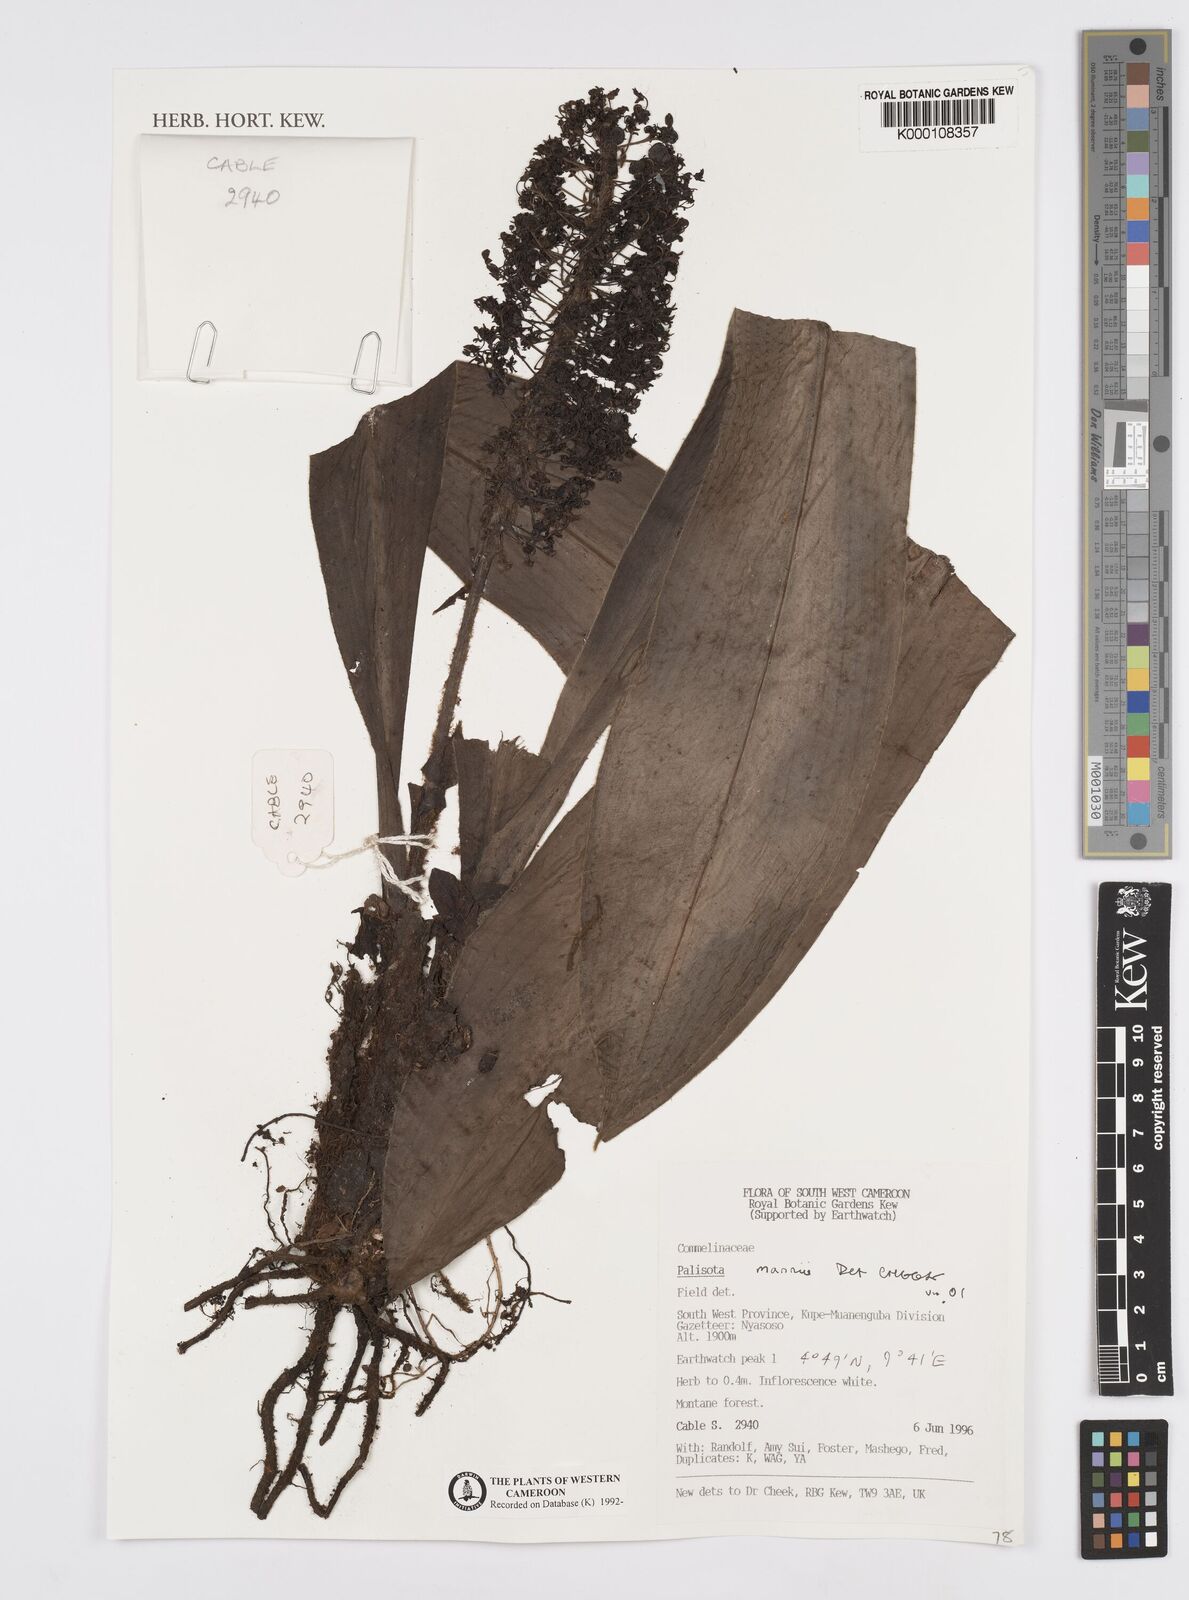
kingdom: Plantae
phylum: Tracheophyta
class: Liliopsida
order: Commelinales
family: Commelinaceae
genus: Palisota
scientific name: Palisota mannii
